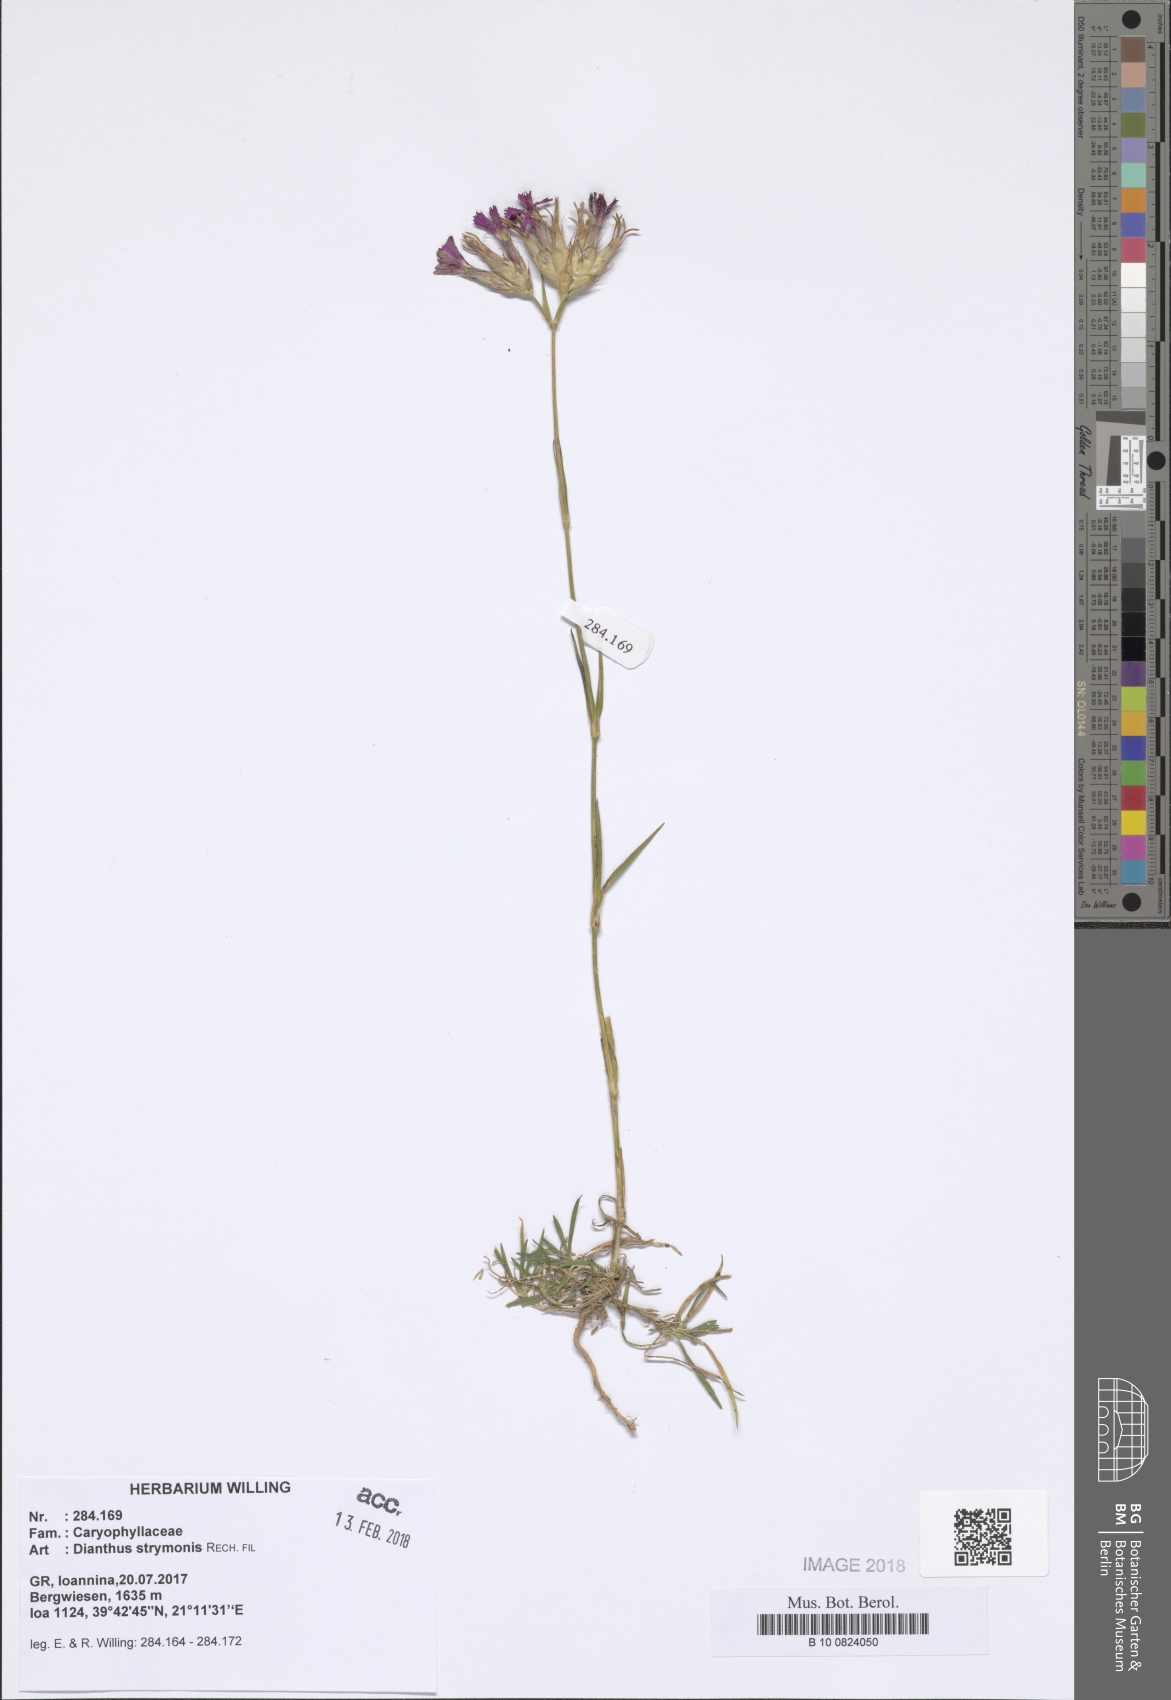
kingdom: Plantae
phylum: Tracheophyta
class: Magnoliopsida
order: Caryophyllales
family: Caryophyllaceae
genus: Dianthus
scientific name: Dianthus strymonis
